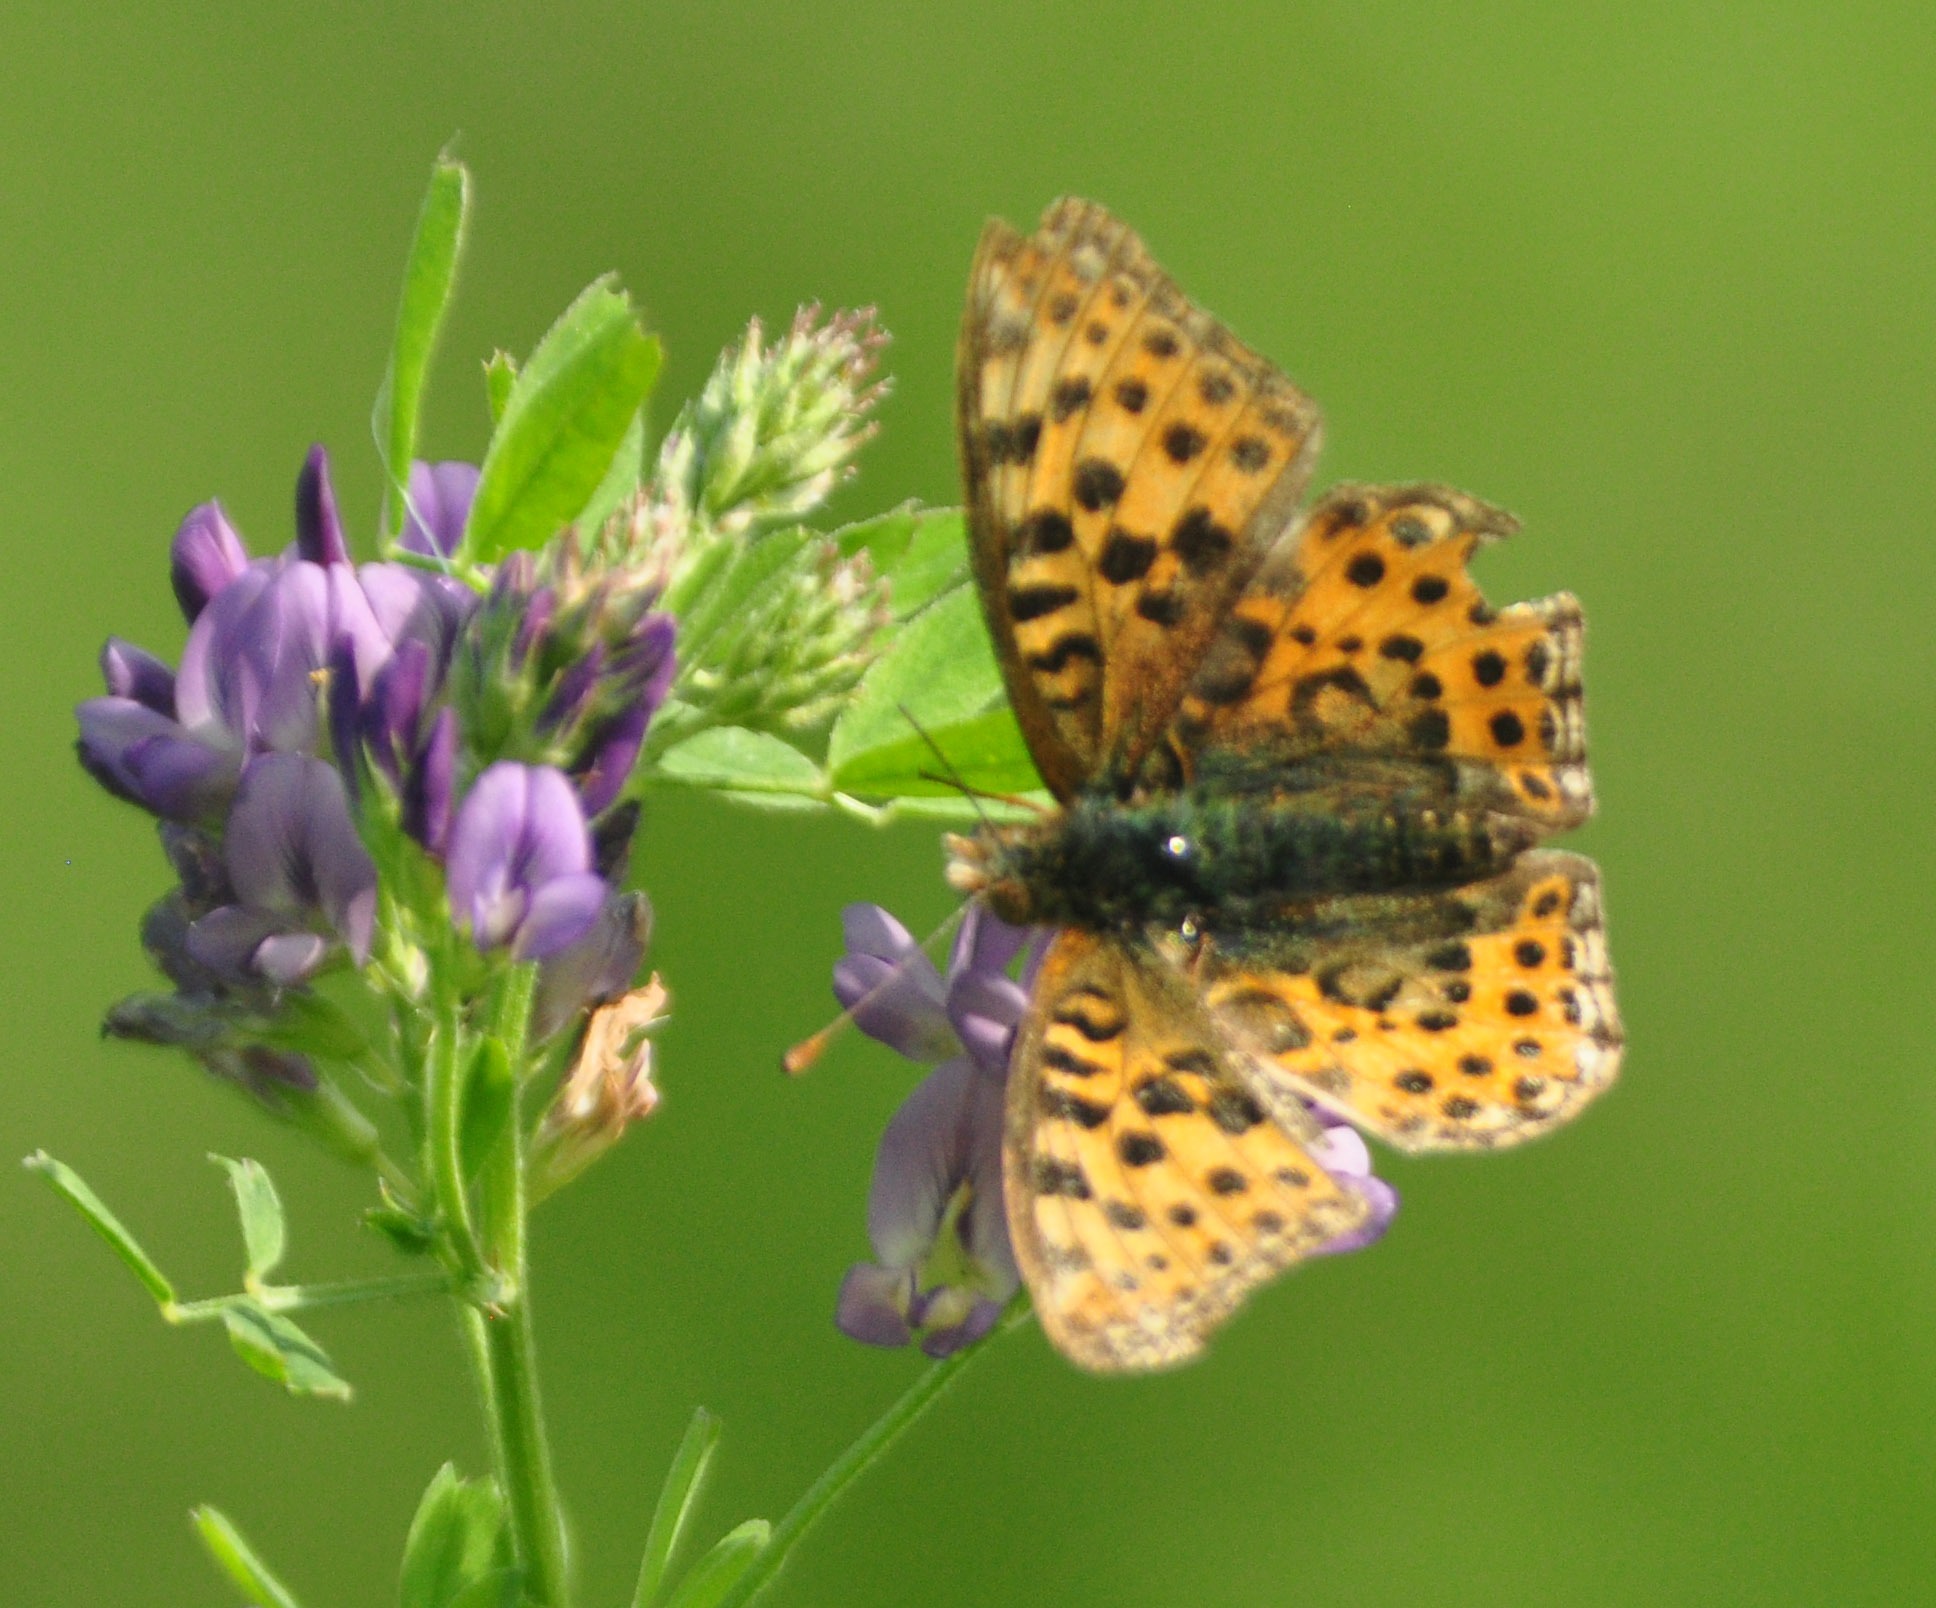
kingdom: Animalia
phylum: Arthropoda
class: Insecta
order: Lepidoptera
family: Nymphalidae
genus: Issoria
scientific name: Issoria lathonia
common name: Storplettet perlemorsommerfugl
